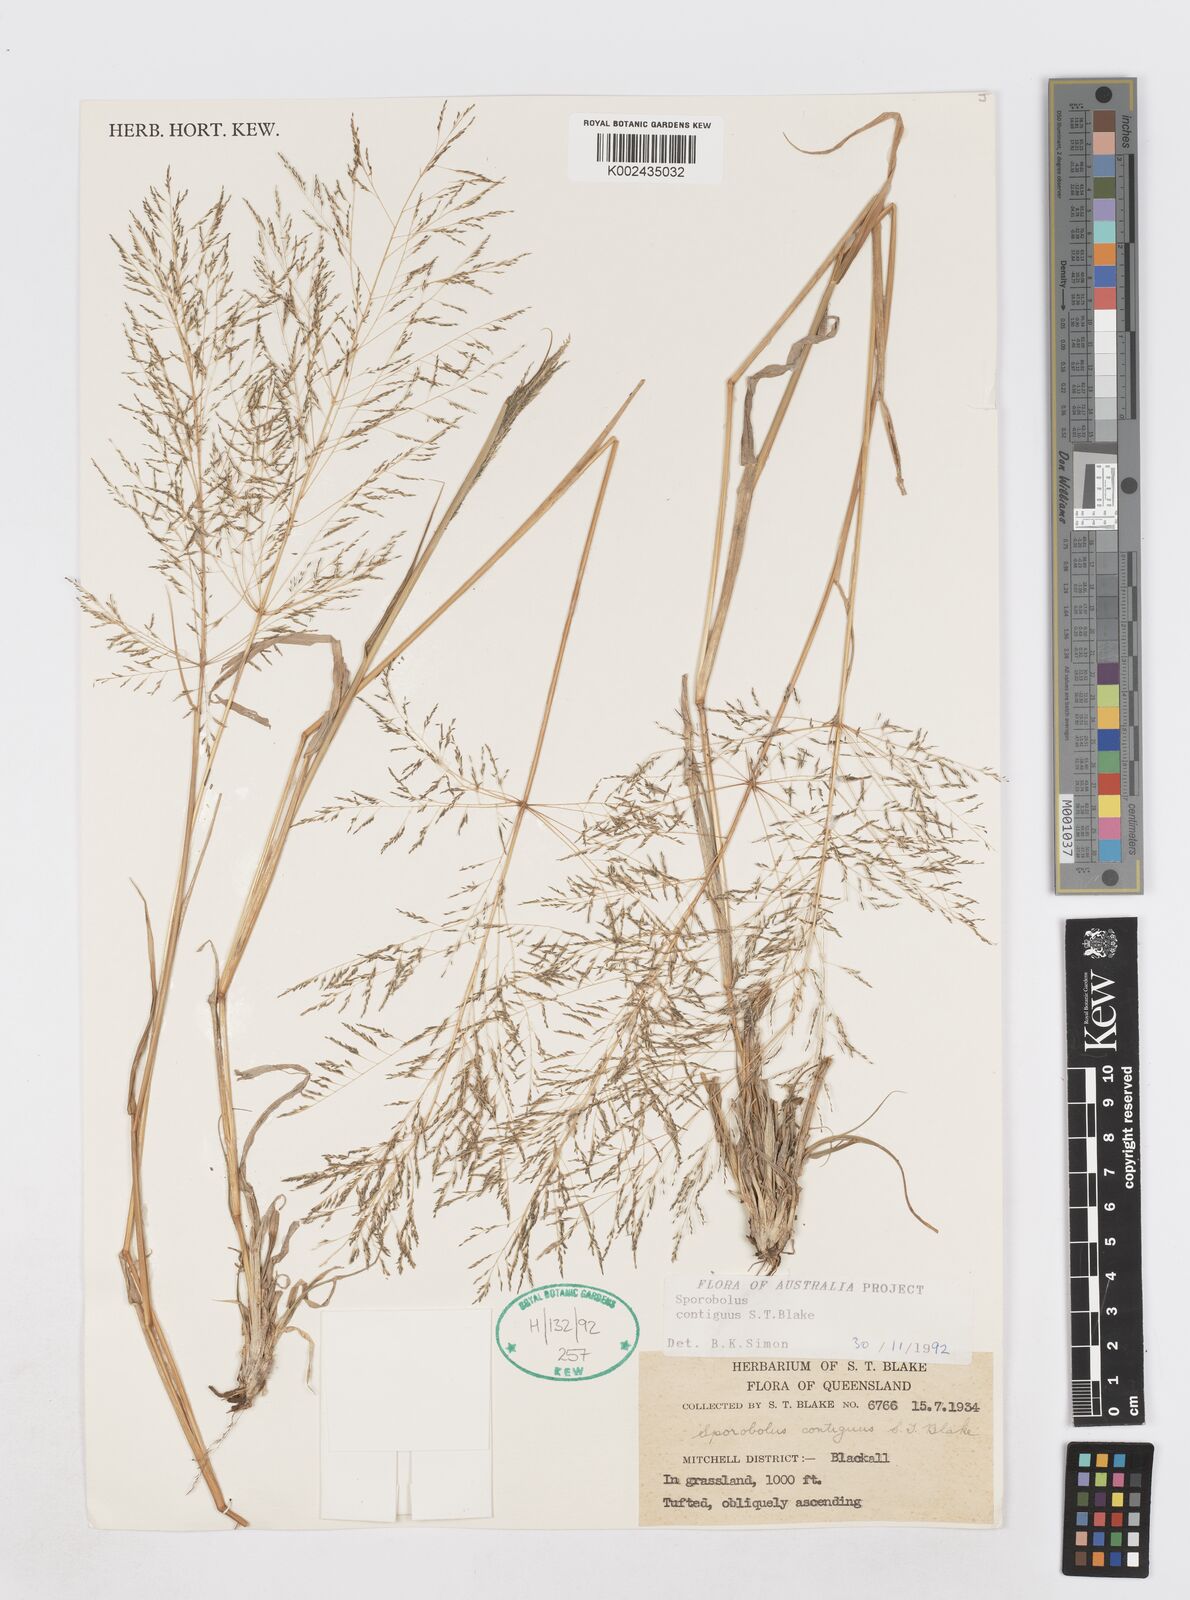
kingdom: Plantae
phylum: Tracheophyta
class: Liliopsida
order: Poales
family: Poaceae
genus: Sporobolus
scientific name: Sporobolus contiguus
